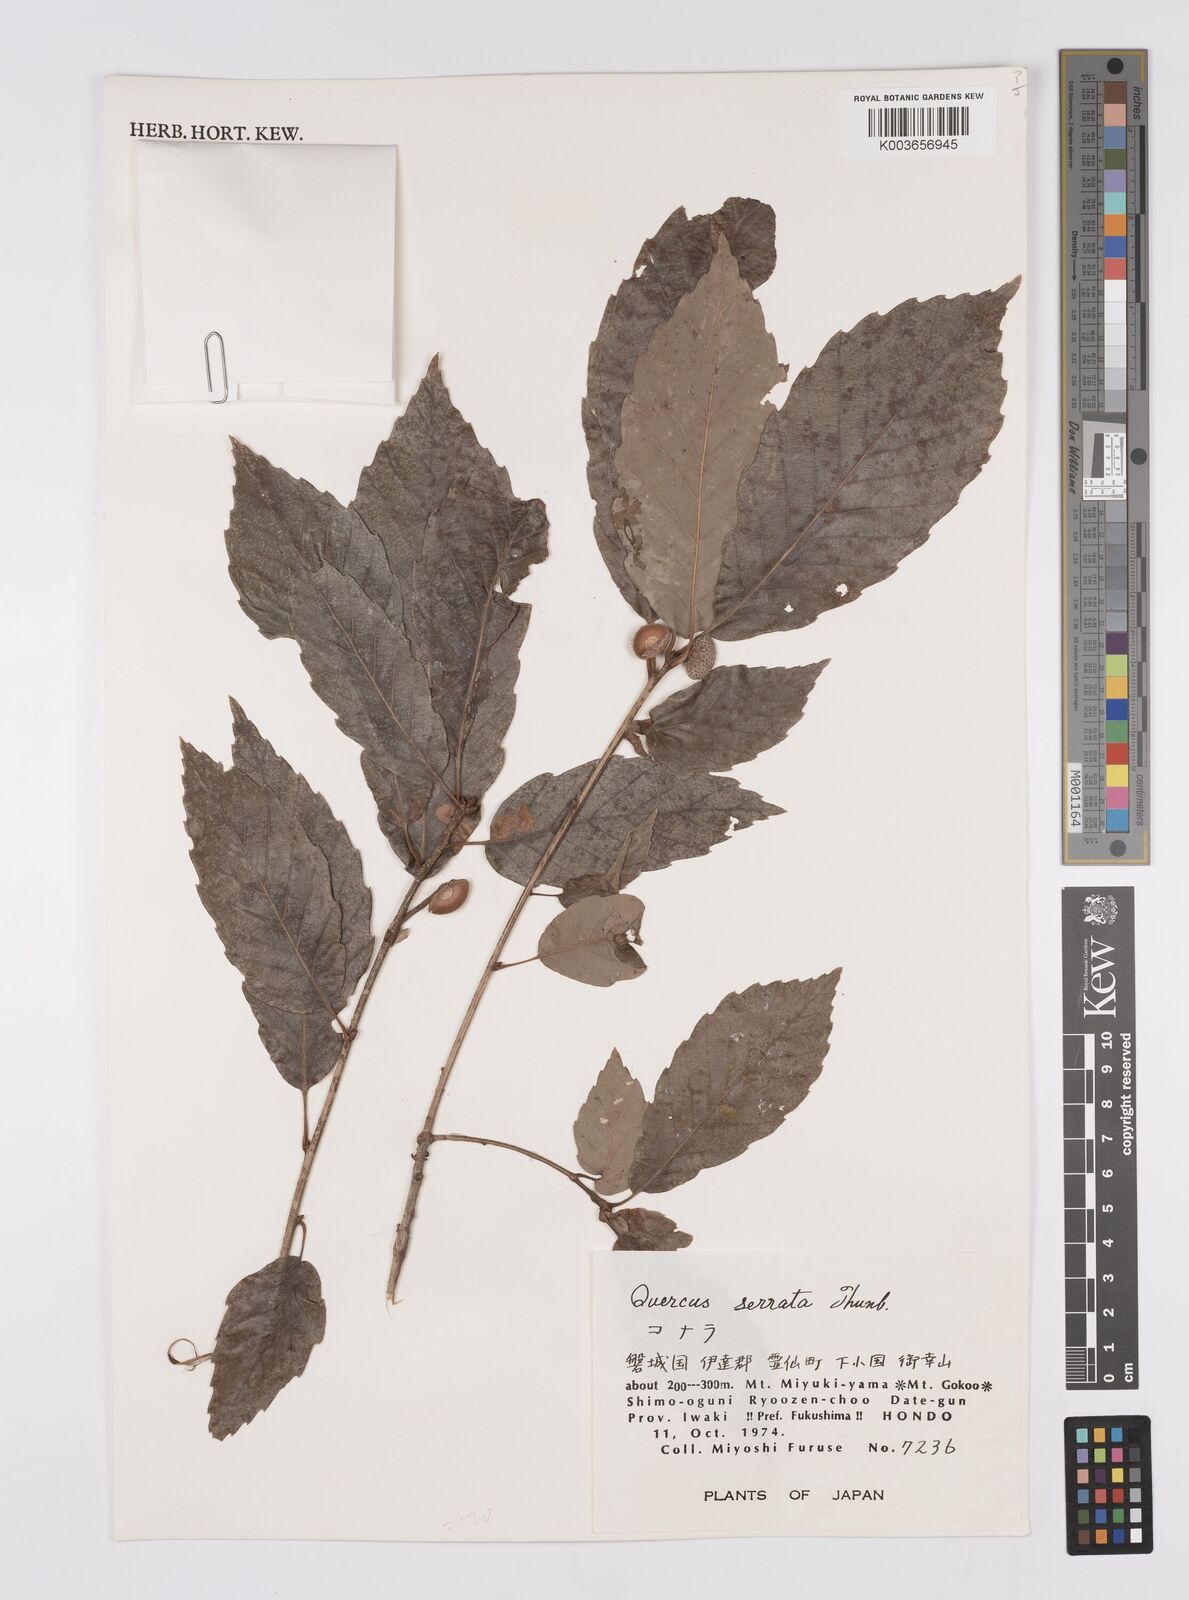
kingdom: Plantae
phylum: Tracheophyta
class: Magnoliopsida
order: Fagales
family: Fagaceae
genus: Quercus
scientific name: Quercus serrata
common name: Bao li
